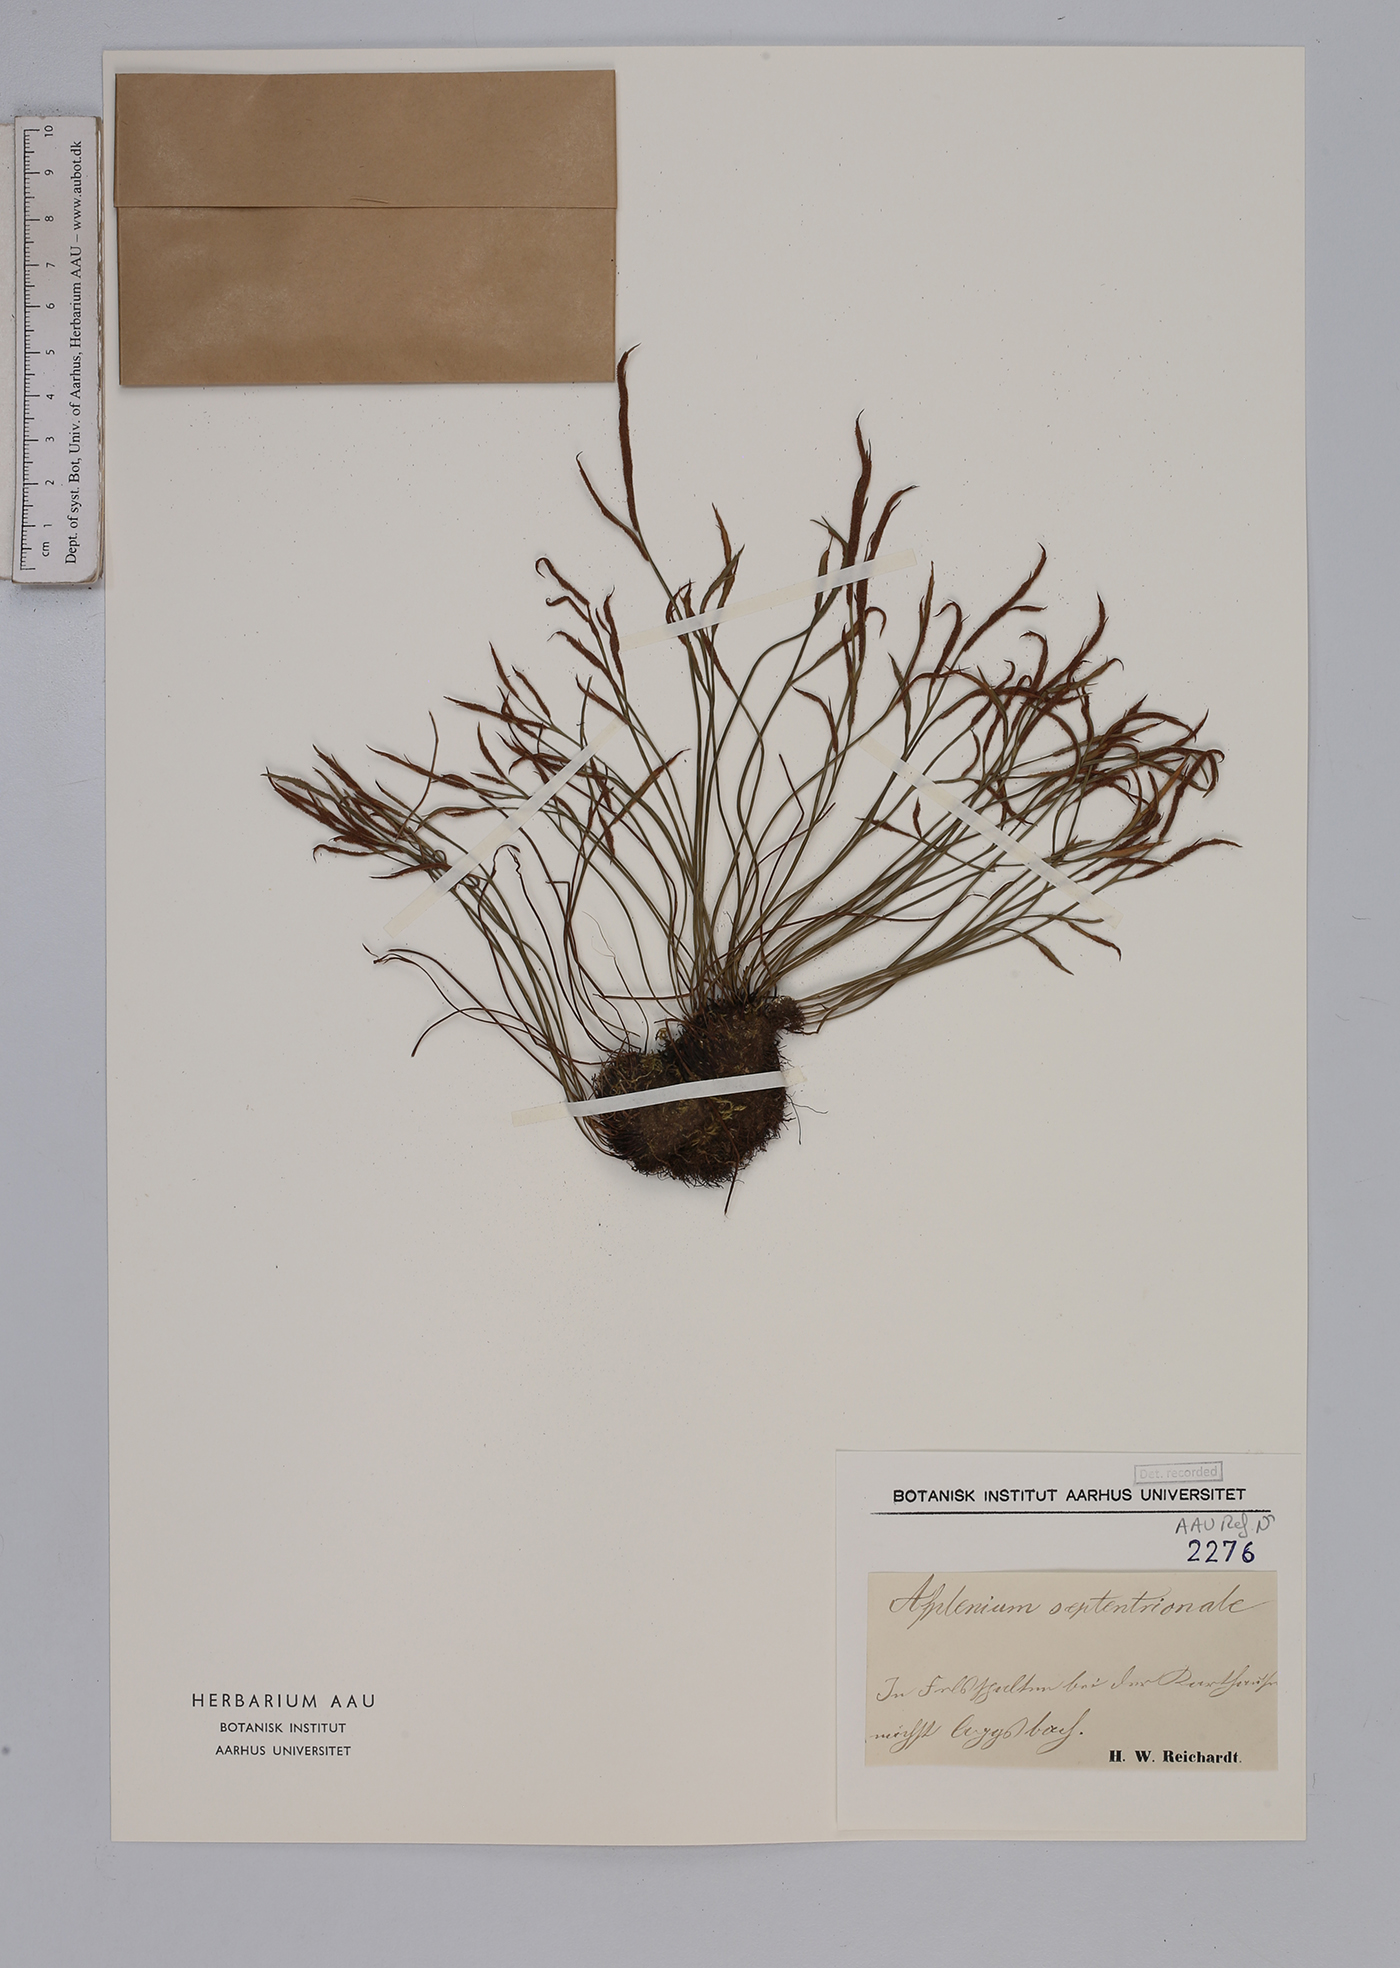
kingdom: Plantae
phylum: Tracheophyta
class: Polypodiopsida
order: Polypodiales
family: Aspleniaceae
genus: Asplenium
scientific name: Asplenium septentrionale
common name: Forked spleenwort
